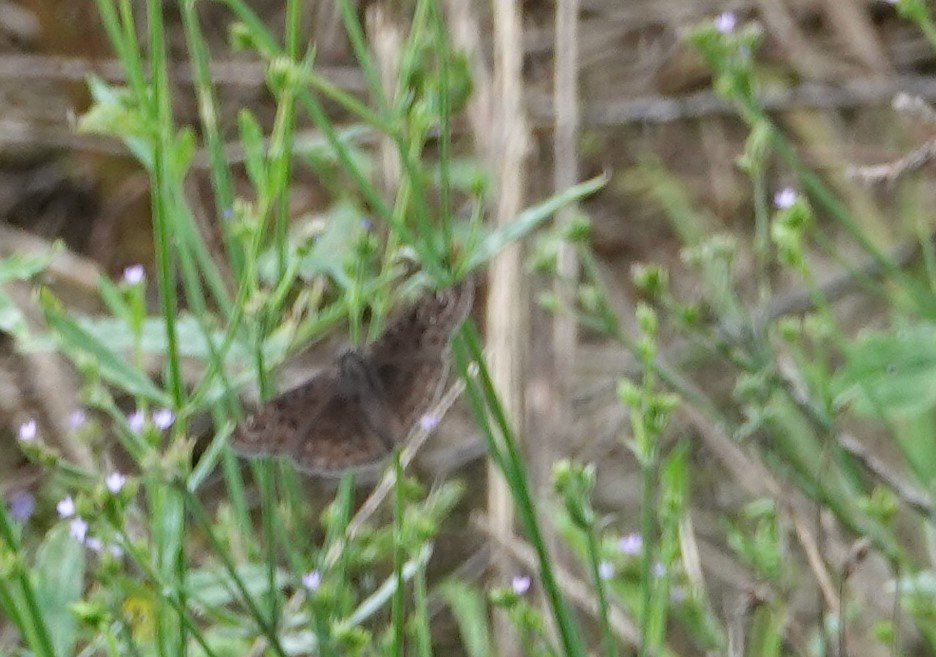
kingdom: Animalia
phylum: Arthropoda
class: Insecta
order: Lepidoptera
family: Hesperiidae
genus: Erynnis
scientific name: Erynnis zarucco
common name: Zarucco Duskywing
